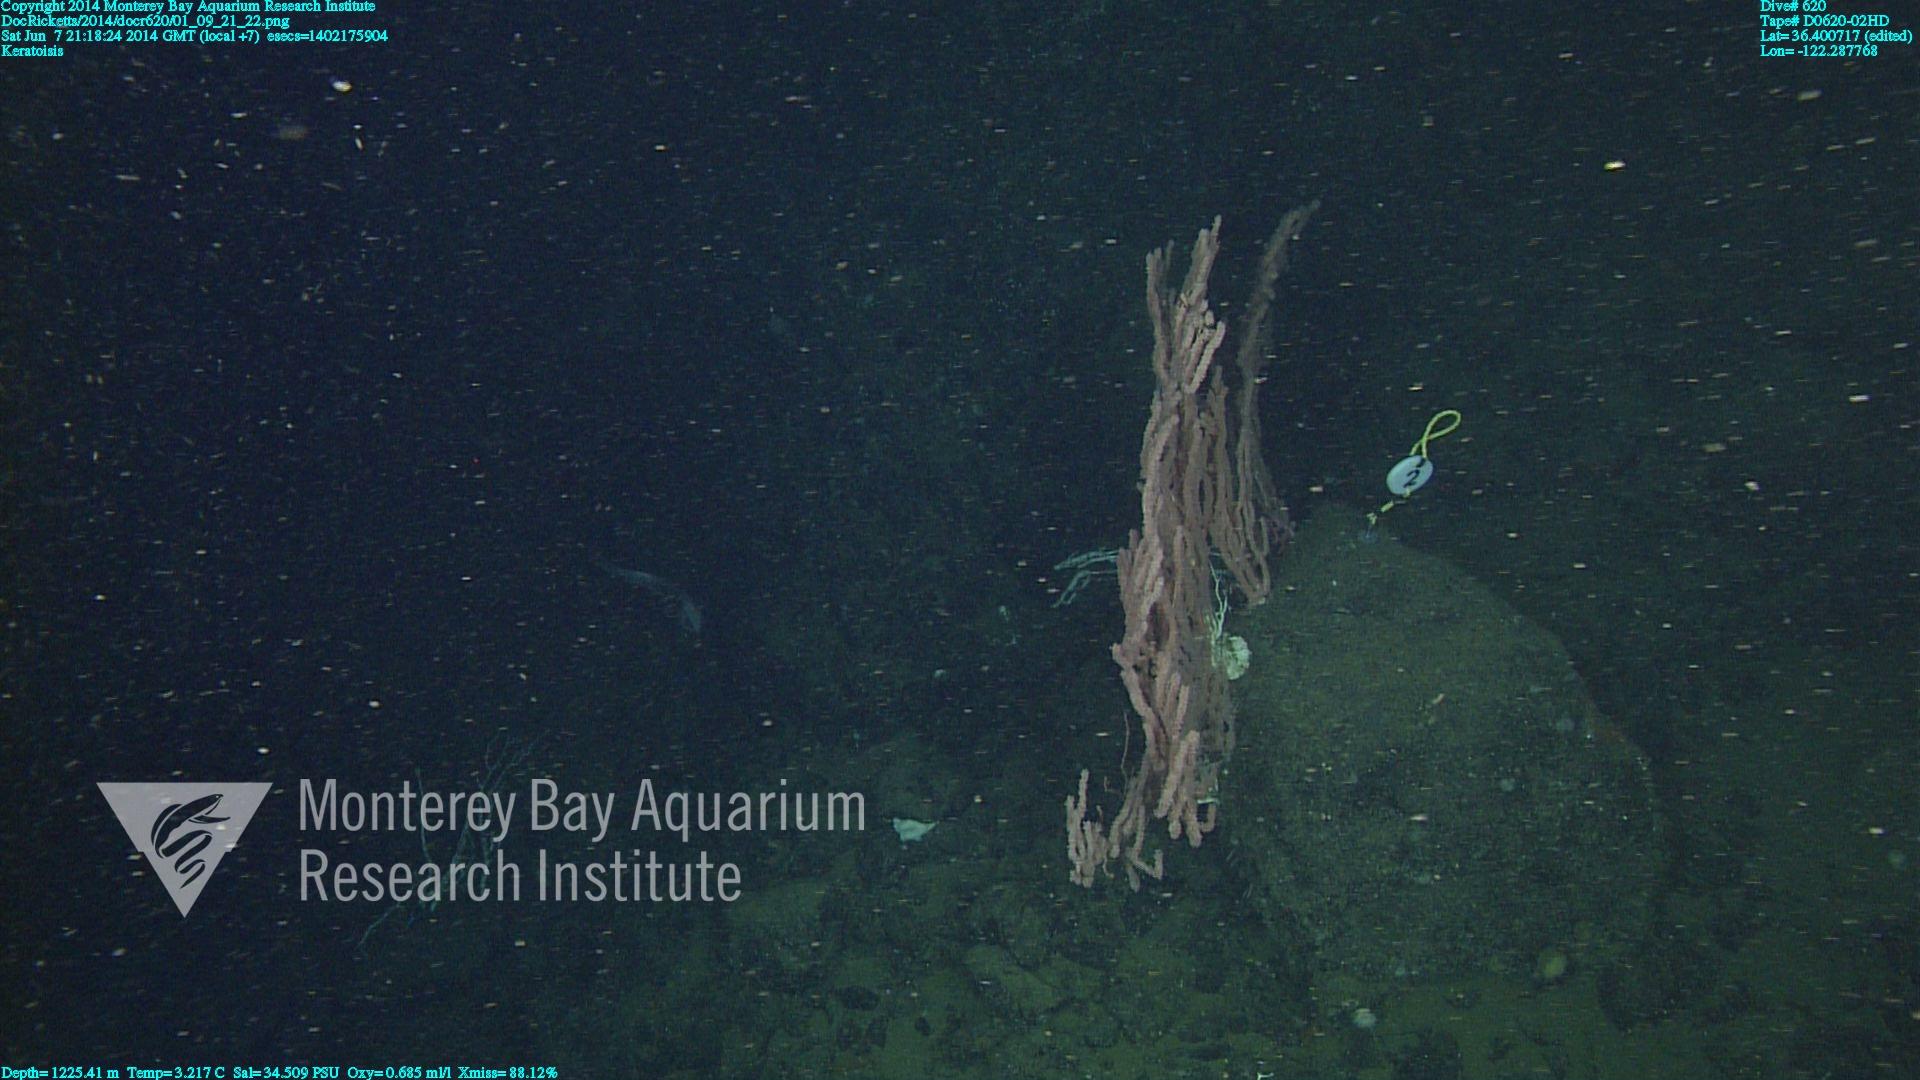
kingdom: Animalia
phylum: Cnidaria
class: Anthozoa
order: Scleralcyonacea
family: Keratoisididae
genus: Keratoisis
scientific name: Keratoisis
